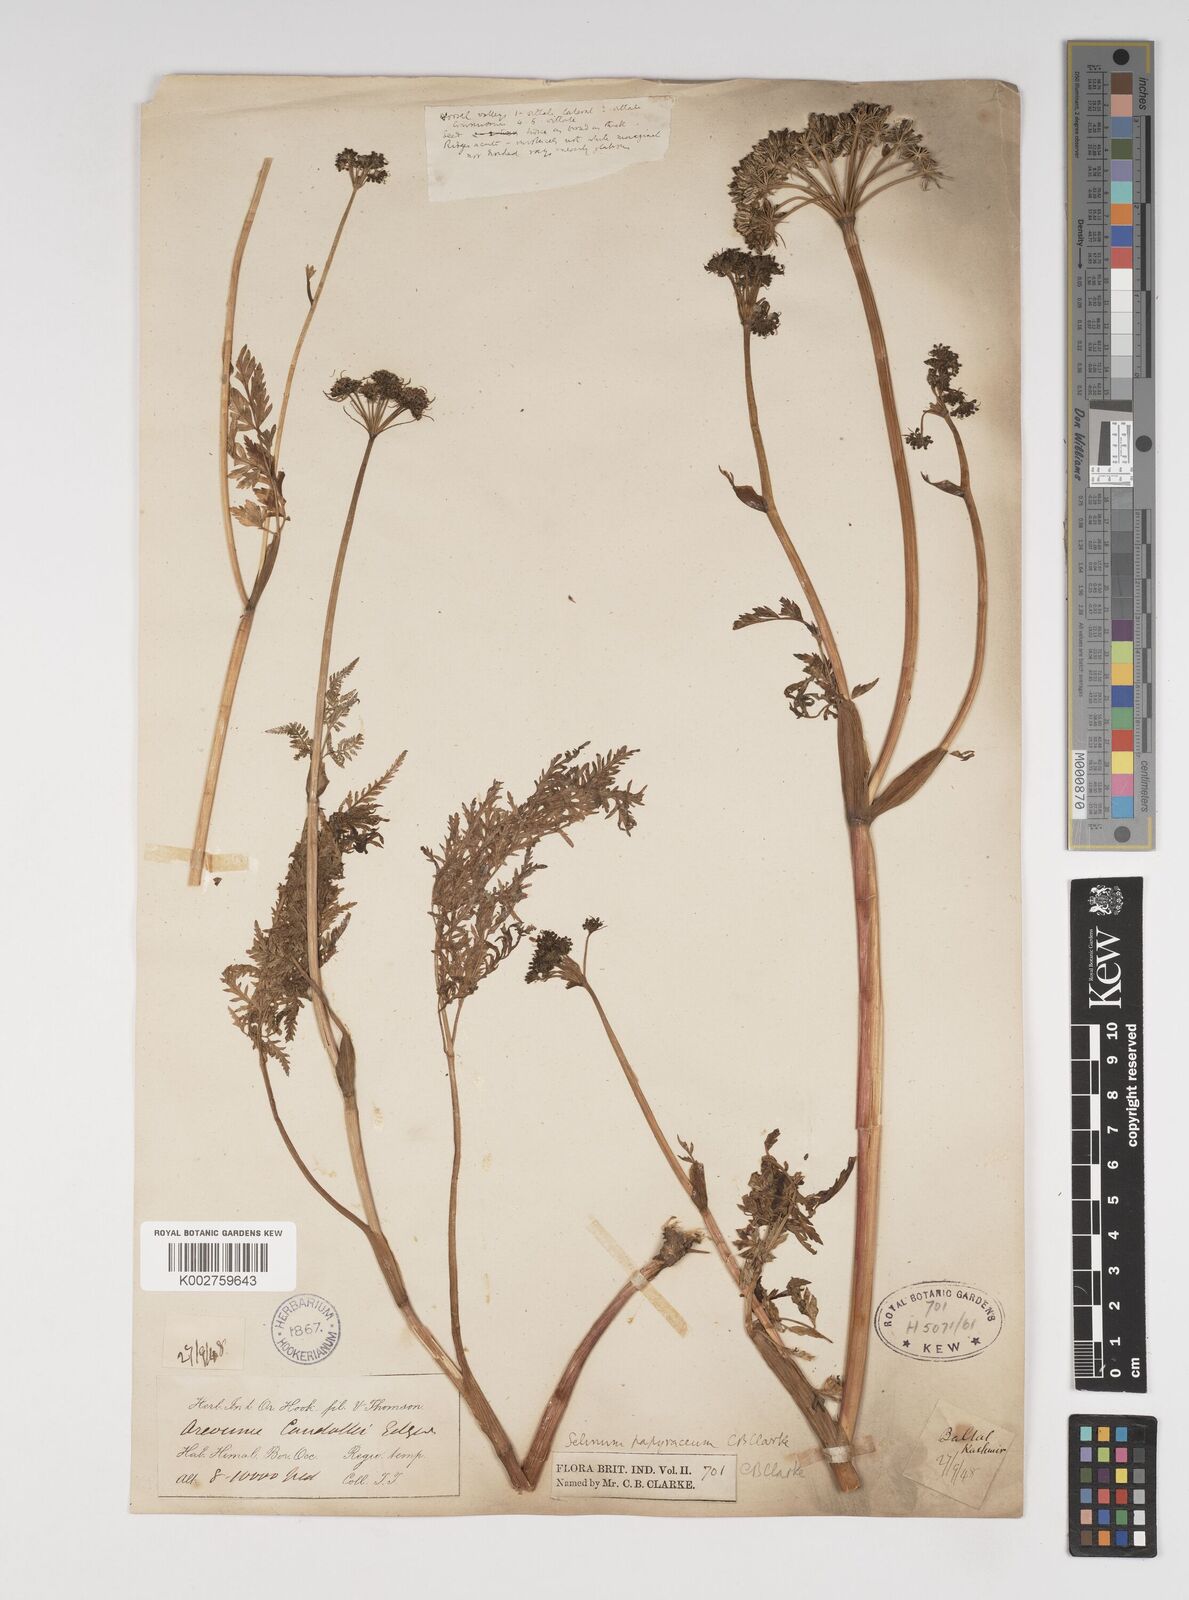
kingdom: Plantae
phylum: Tracheophyta
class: Magnoliopsida
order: Apiales
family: Apiaceae
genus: Conioselinum
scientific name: Conioselinum tataricum
